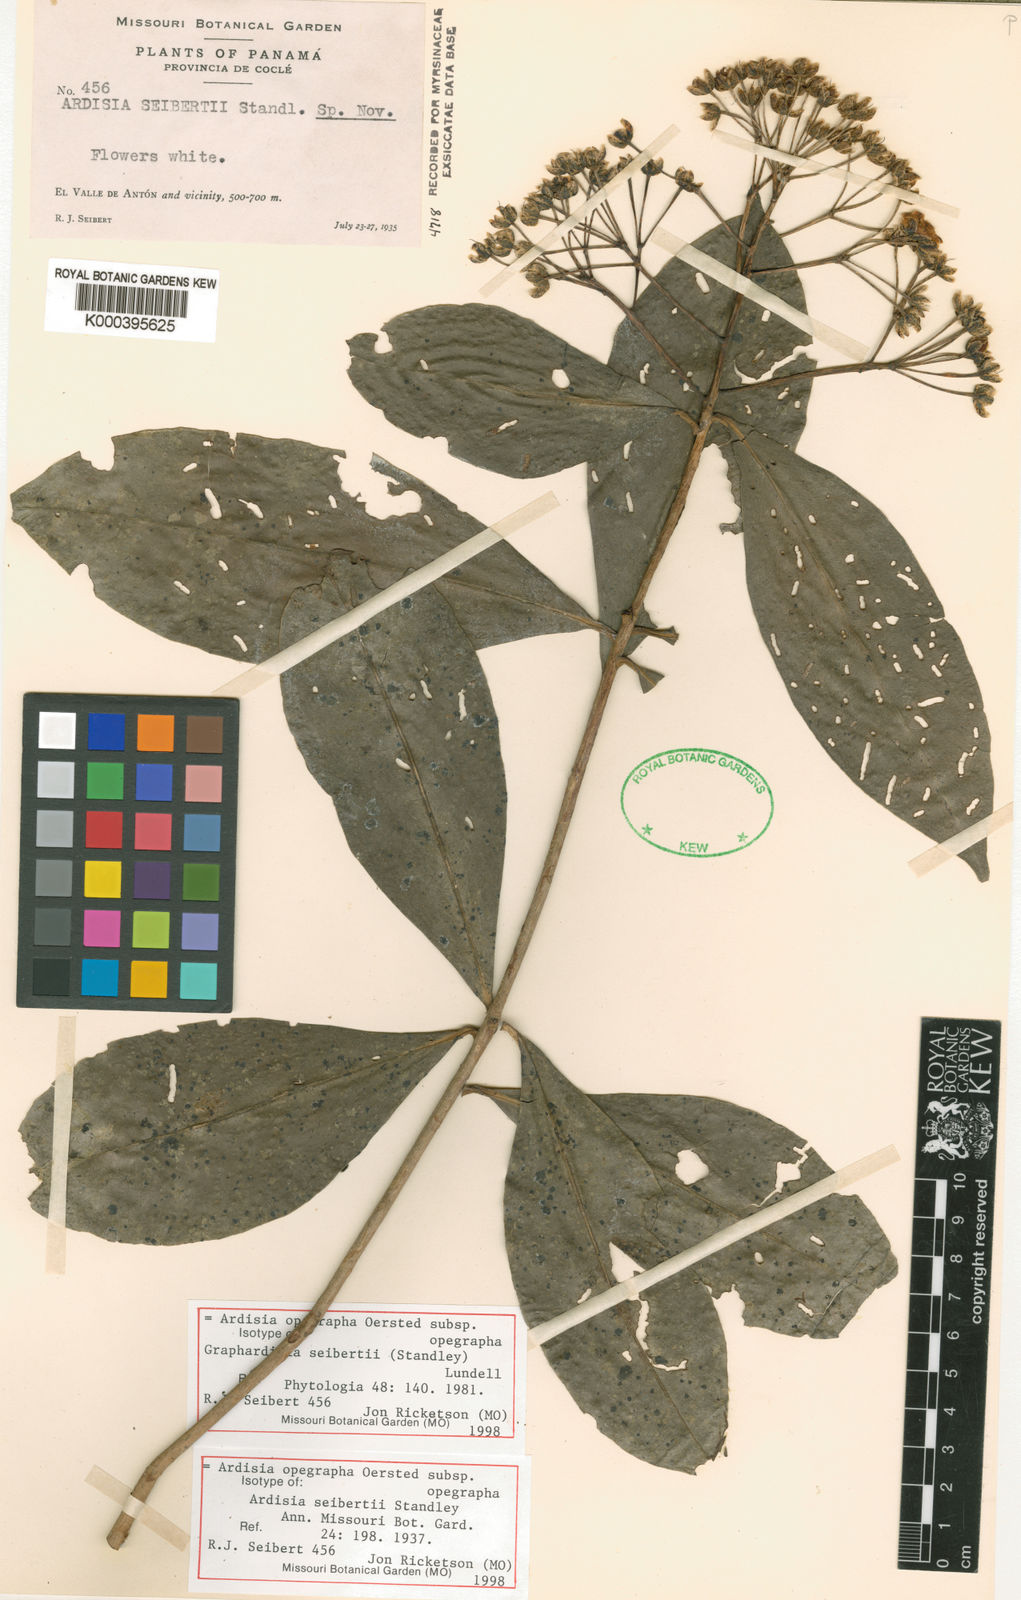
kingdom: Plantae
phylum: Tracheophyta
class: Magnoliopsida
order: Ericales
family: Primulaceae
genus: Ardisia
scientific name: Ardisia opegrapha
